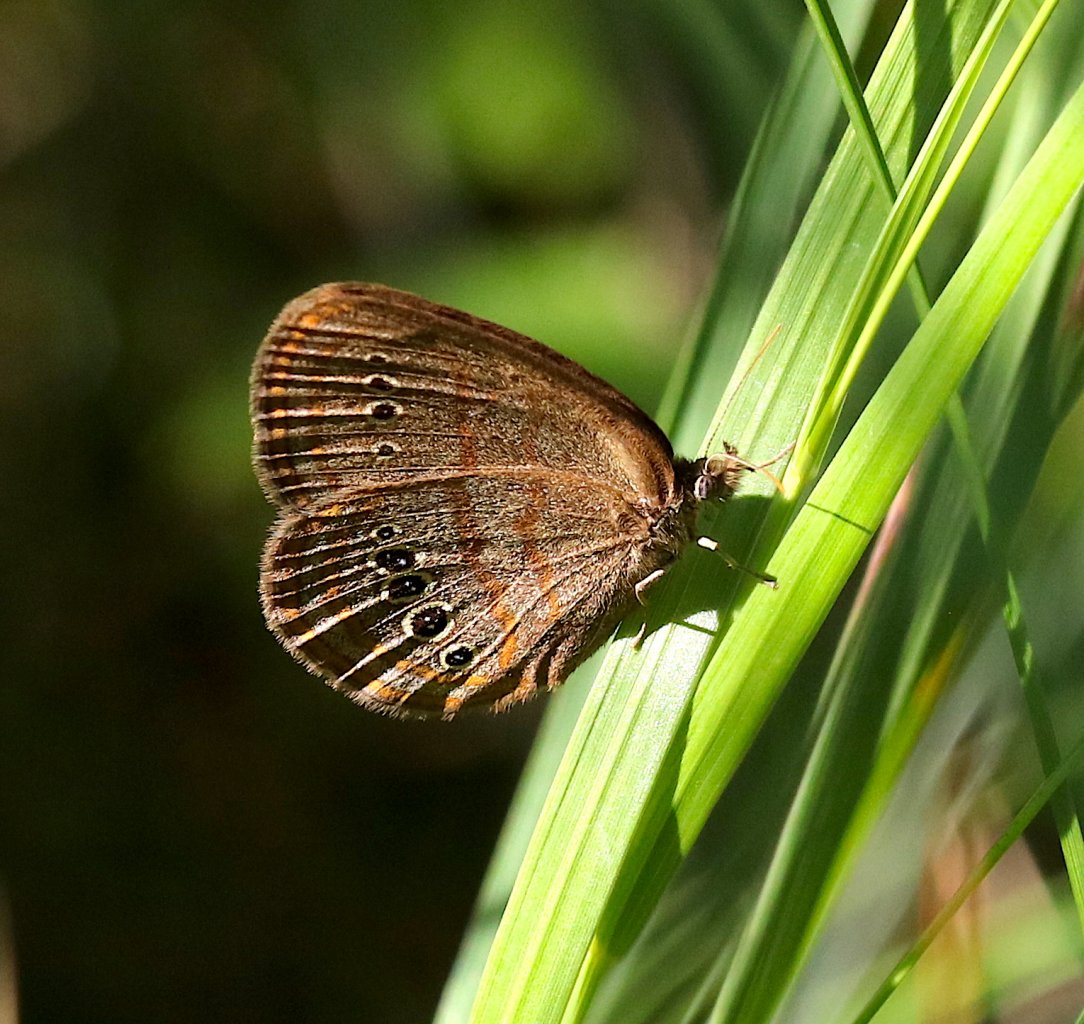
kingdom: Animalia
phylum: Arthropoda
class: Insecta
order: Lepidoptera
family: Nymphalidae
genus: Euptychia
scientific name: Euptychia Neonympha mitchellii
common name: Mitchell's Satyr
